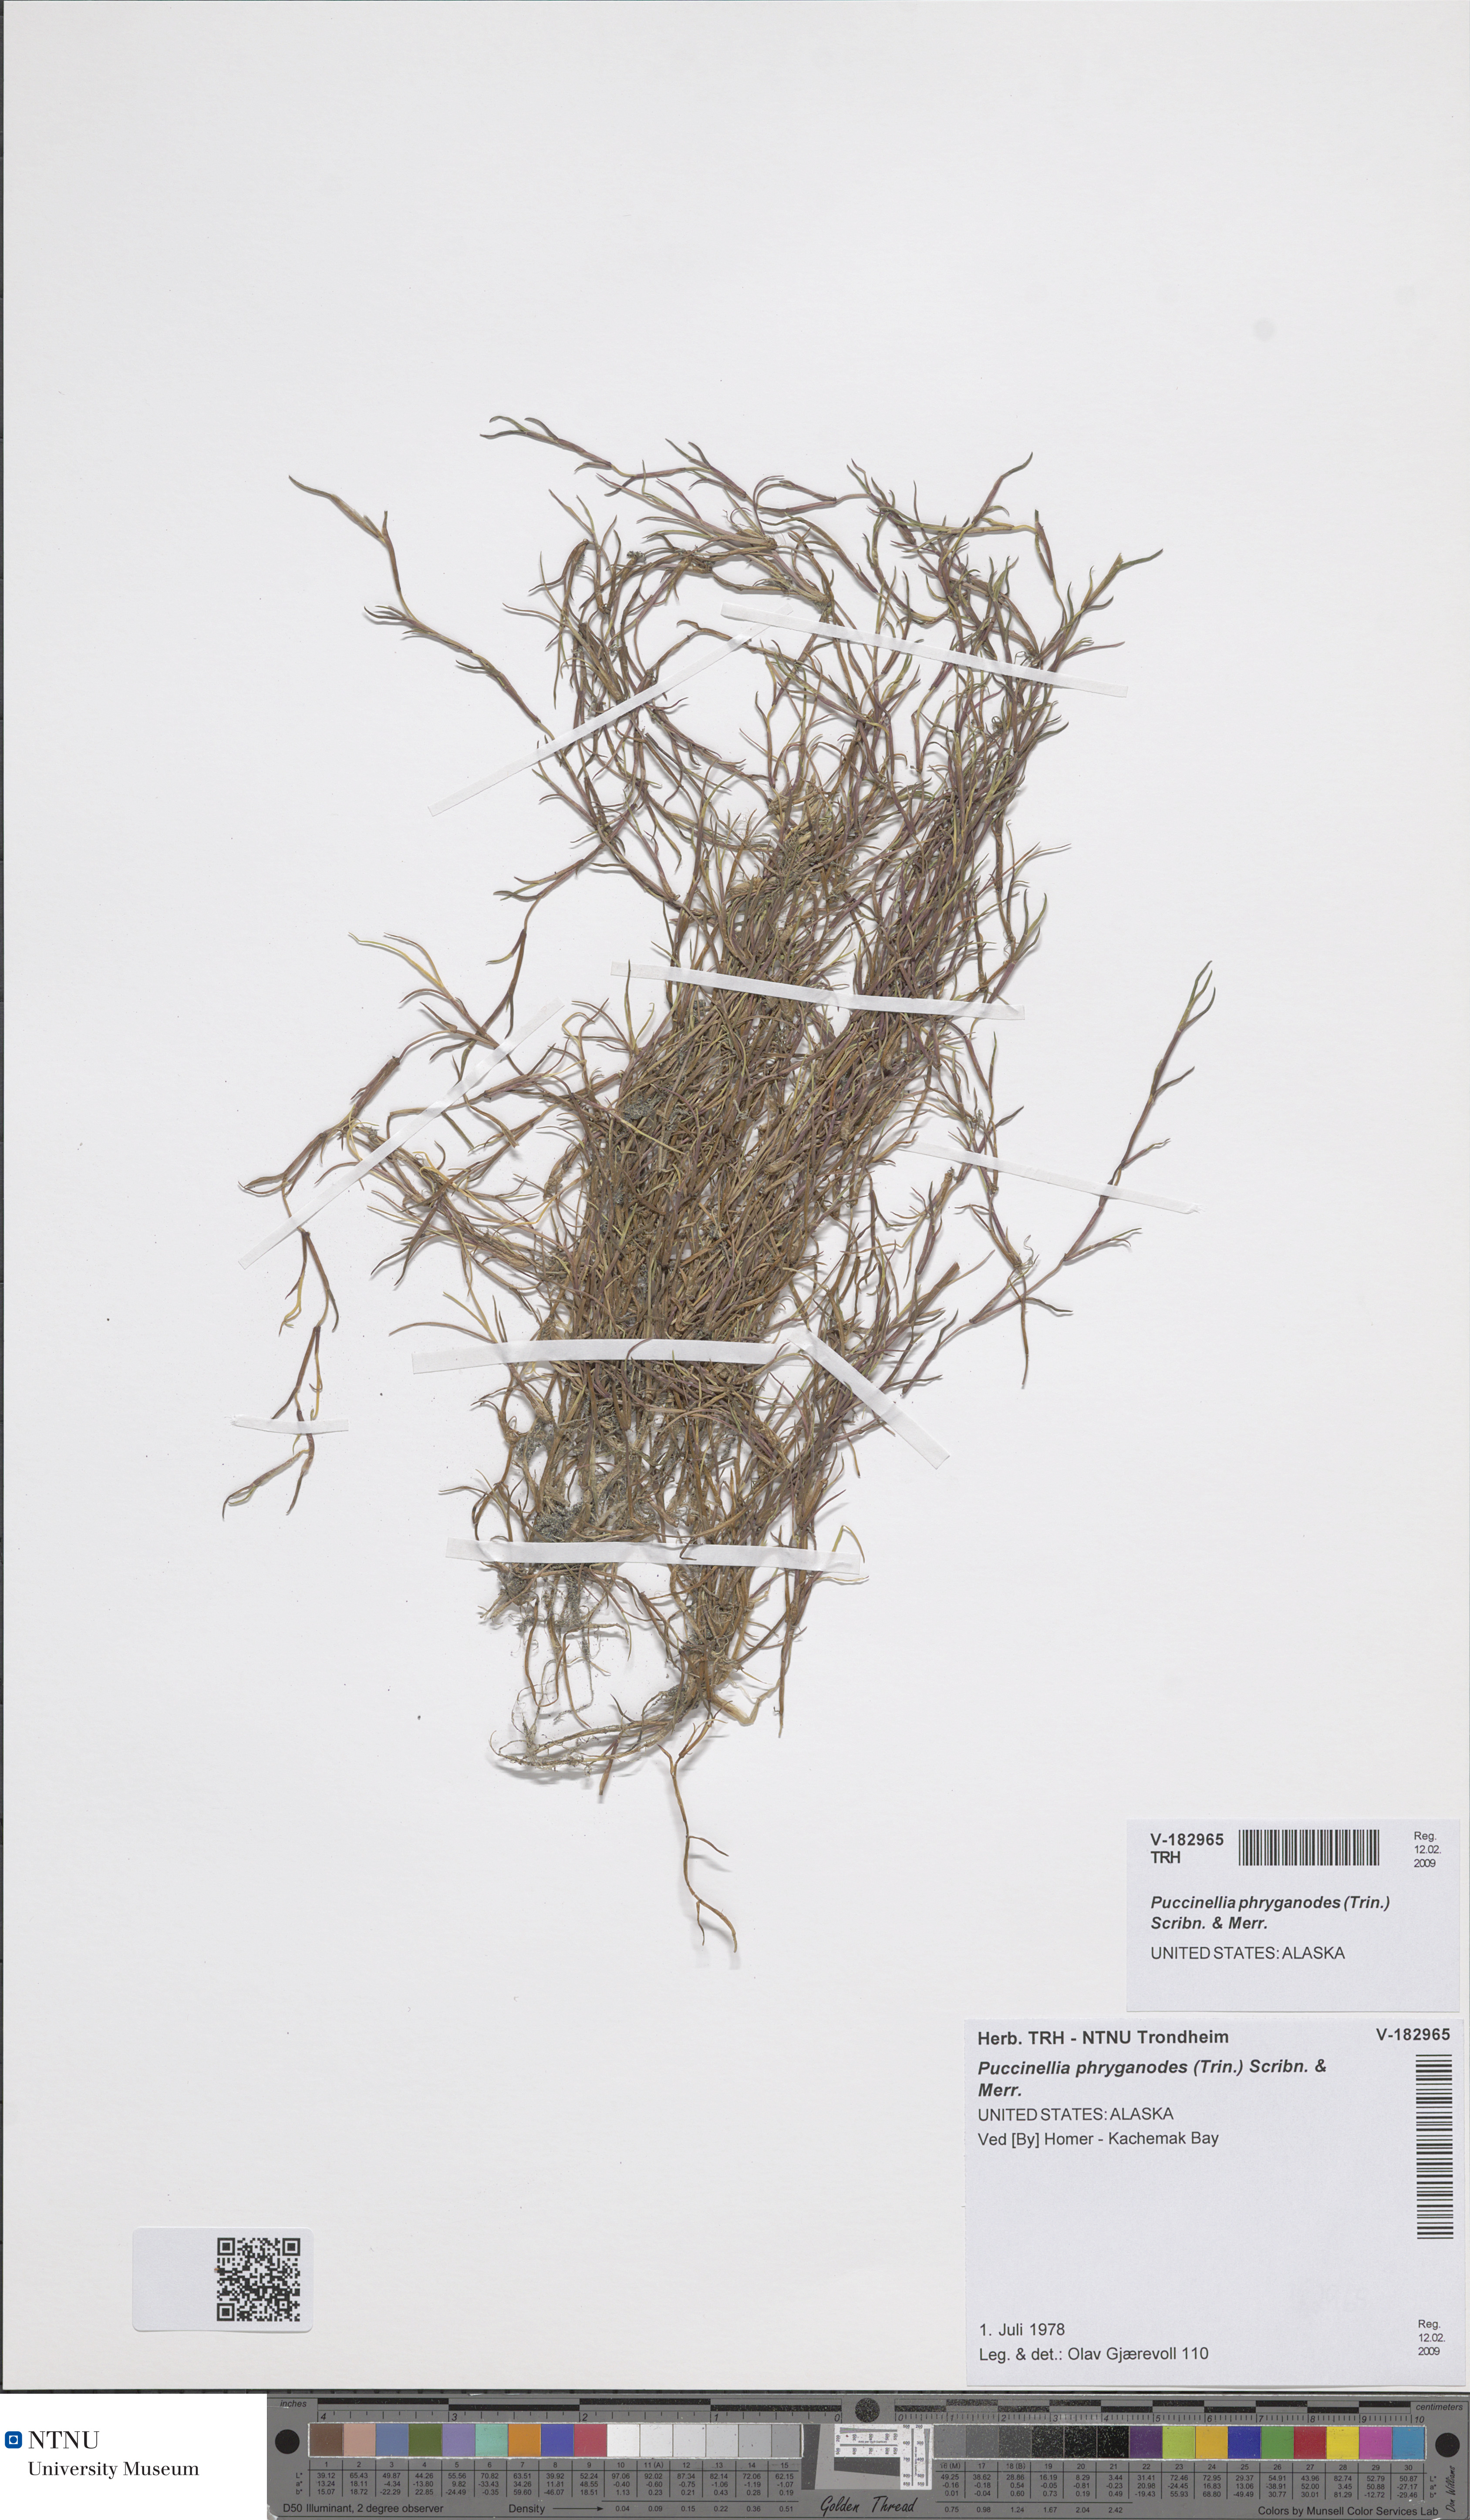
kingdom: Plantae
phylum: Tracheophyta
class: Liliopsida
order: Poales
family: Poaceae
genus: Puccinellia
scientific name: Puccinellia phryganodes
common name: Creeping alkaligrass
